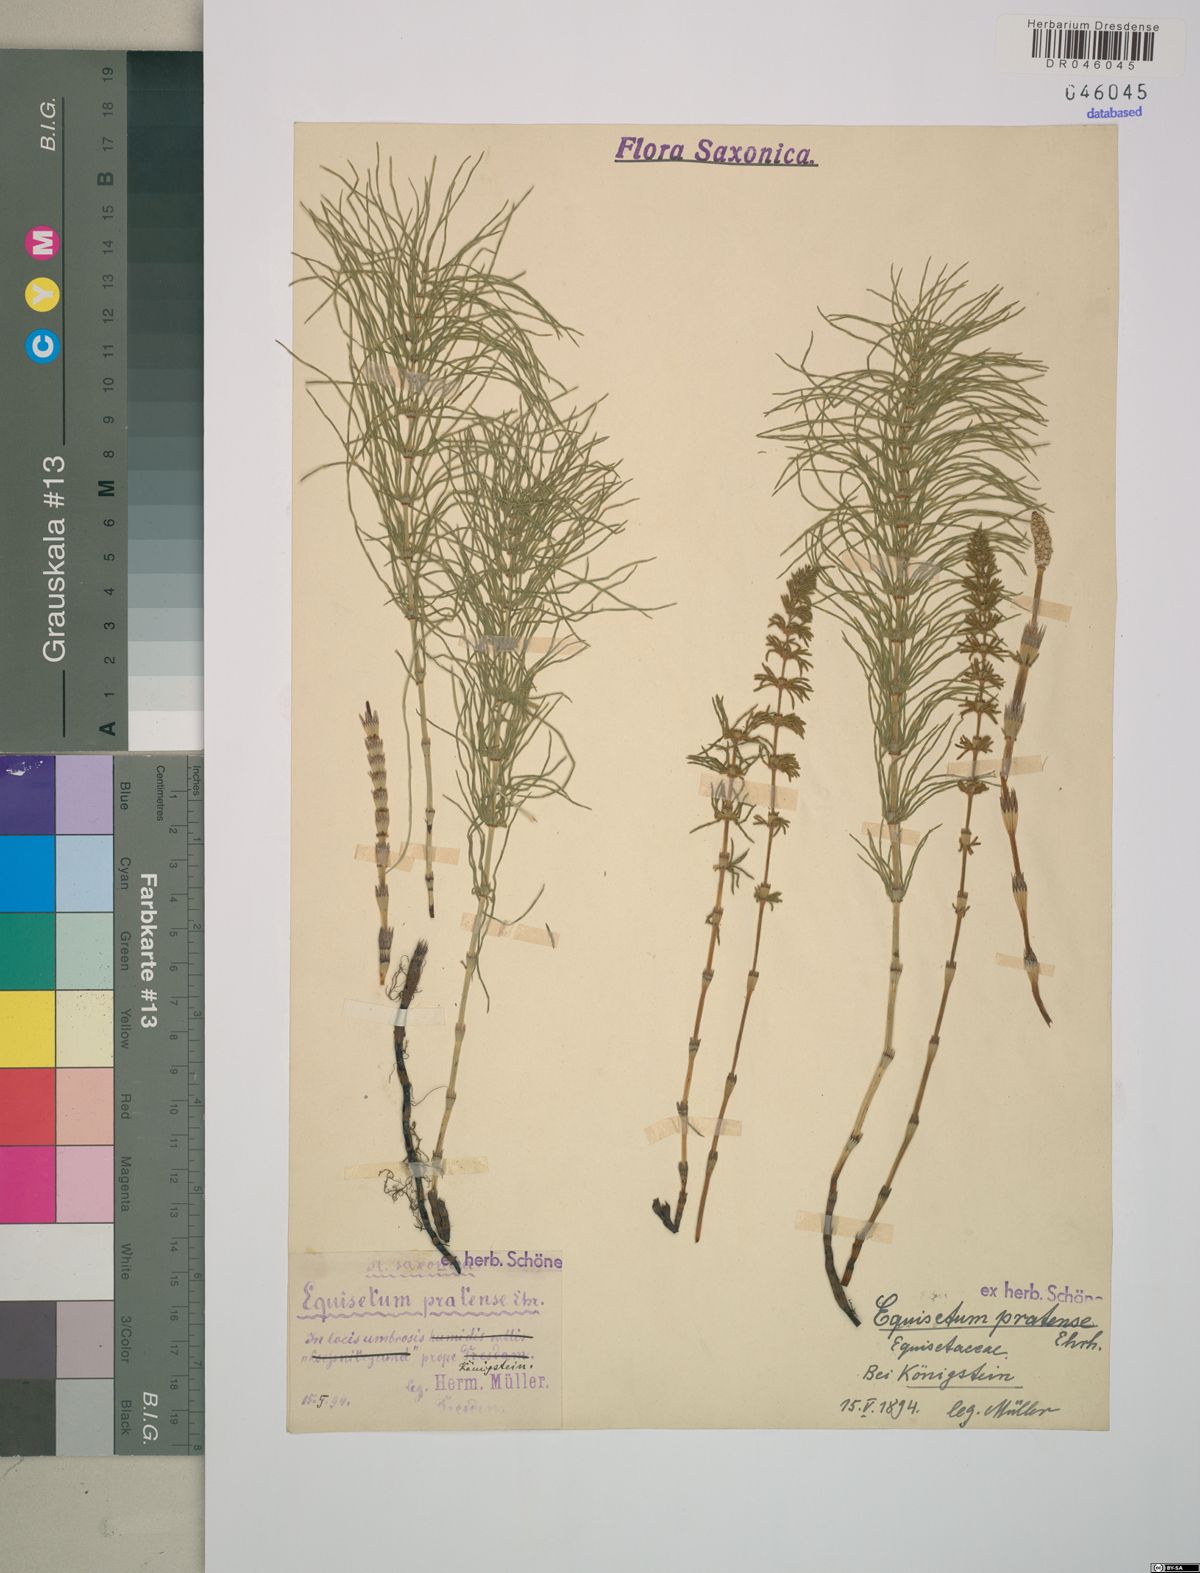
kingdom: Plantae
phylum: Tracheophyta
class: Polypodiopsida
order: Equisetales
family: Equisetaceae
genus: Equisetum
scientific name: Equisetum pratense
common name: Meadow horsetail
